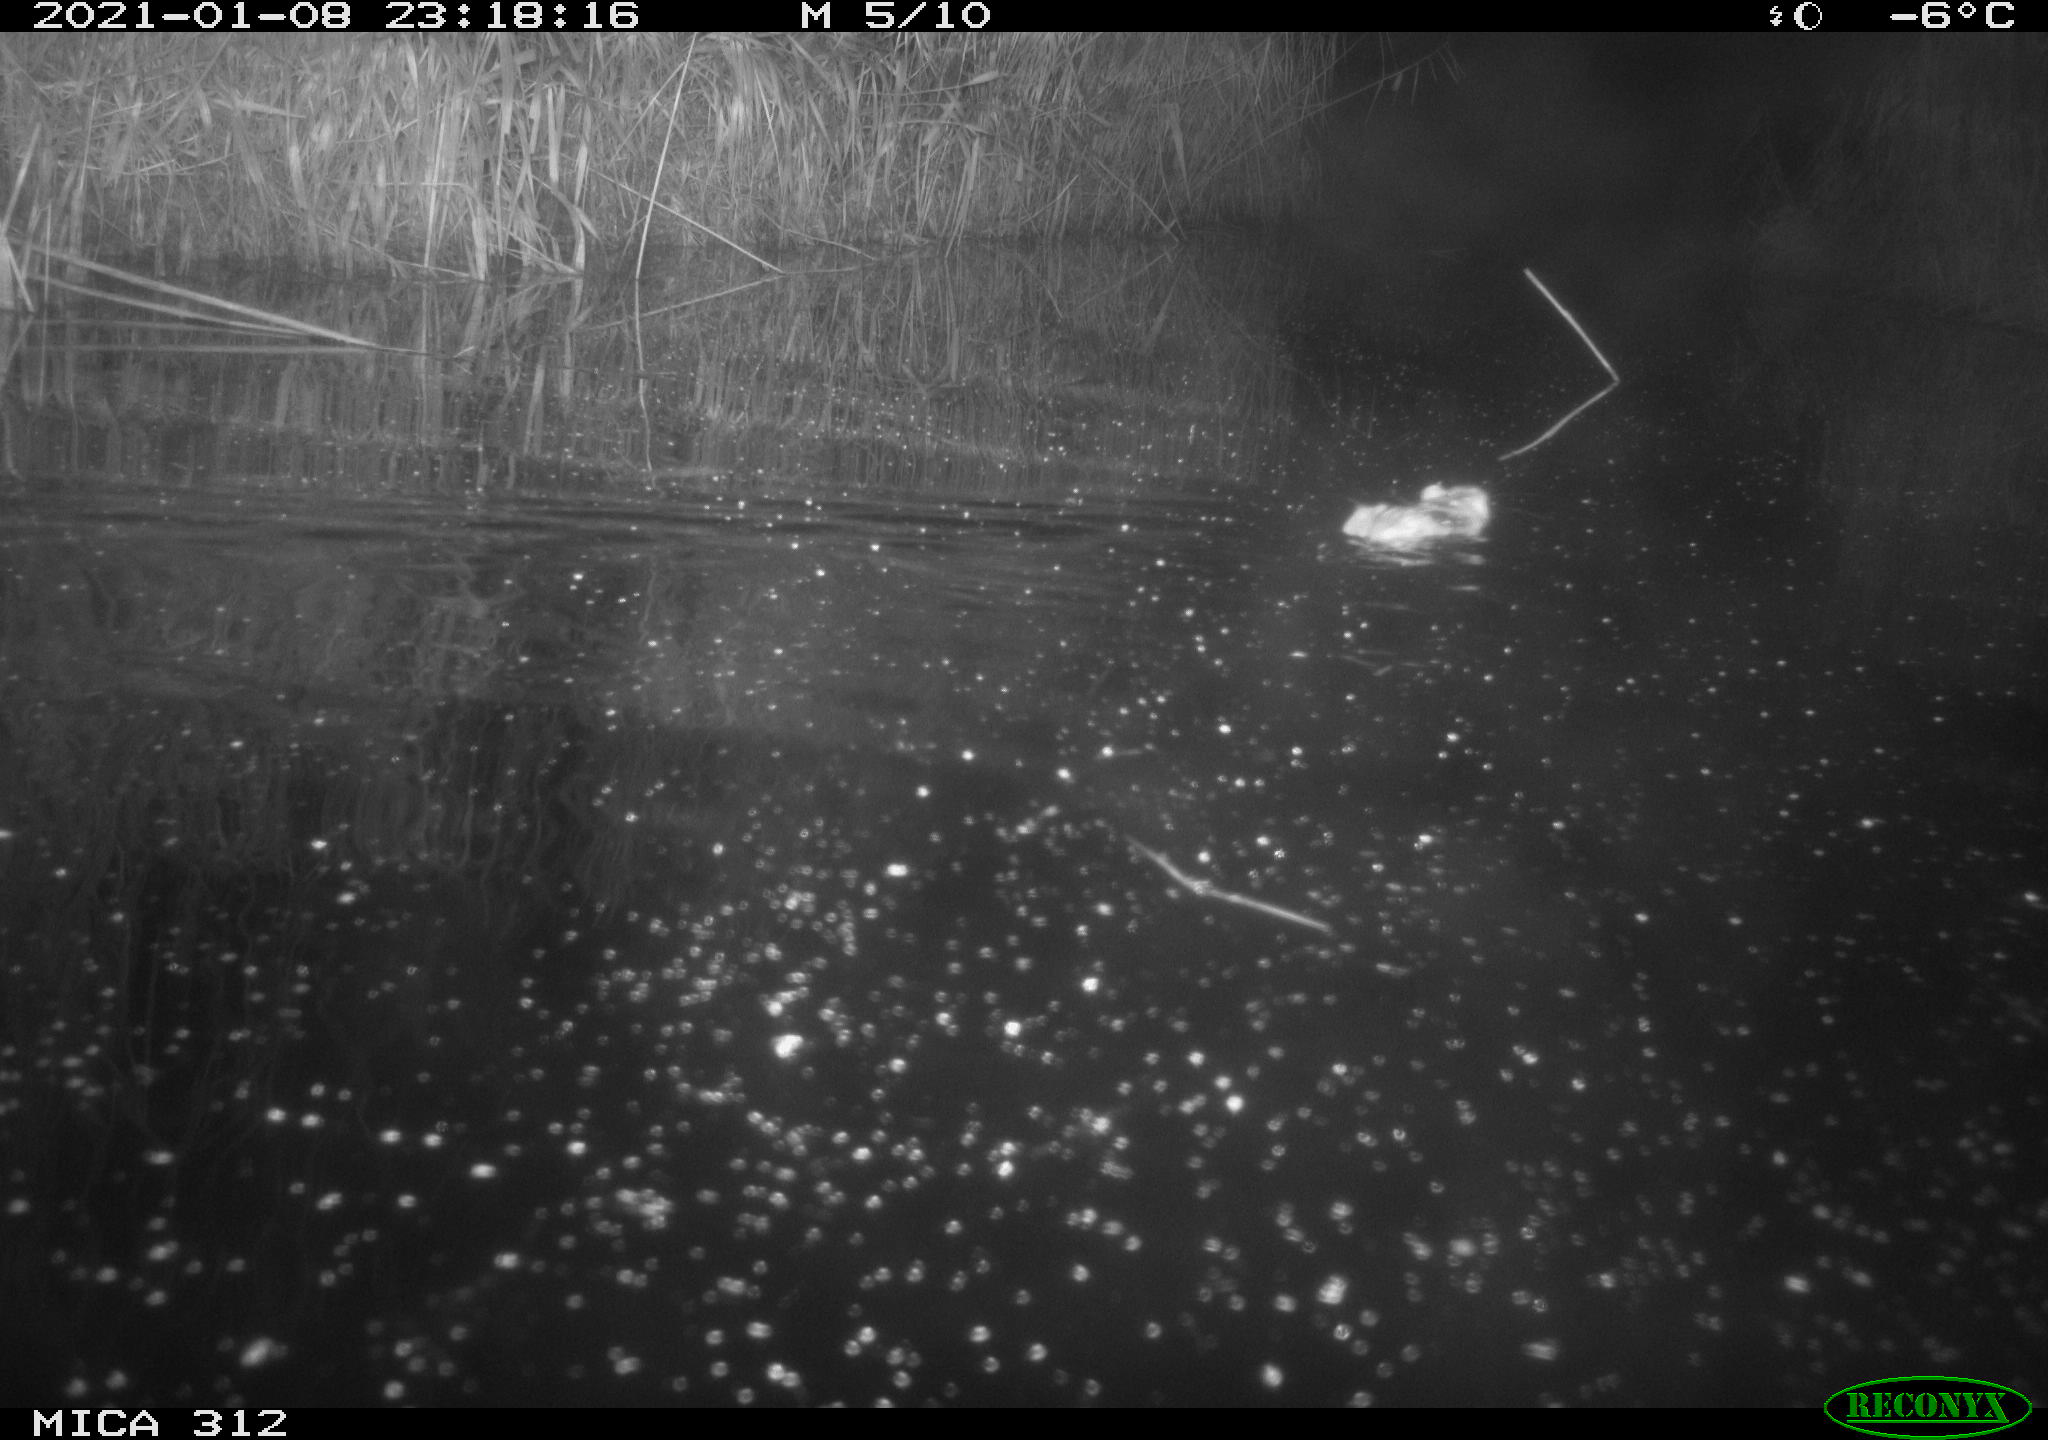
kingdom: Animalia
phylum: Chordata
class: Mammalia
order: Rodentia
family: Muridae
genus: Rattus
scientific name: Rattus norvegicus
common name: Brown rat
